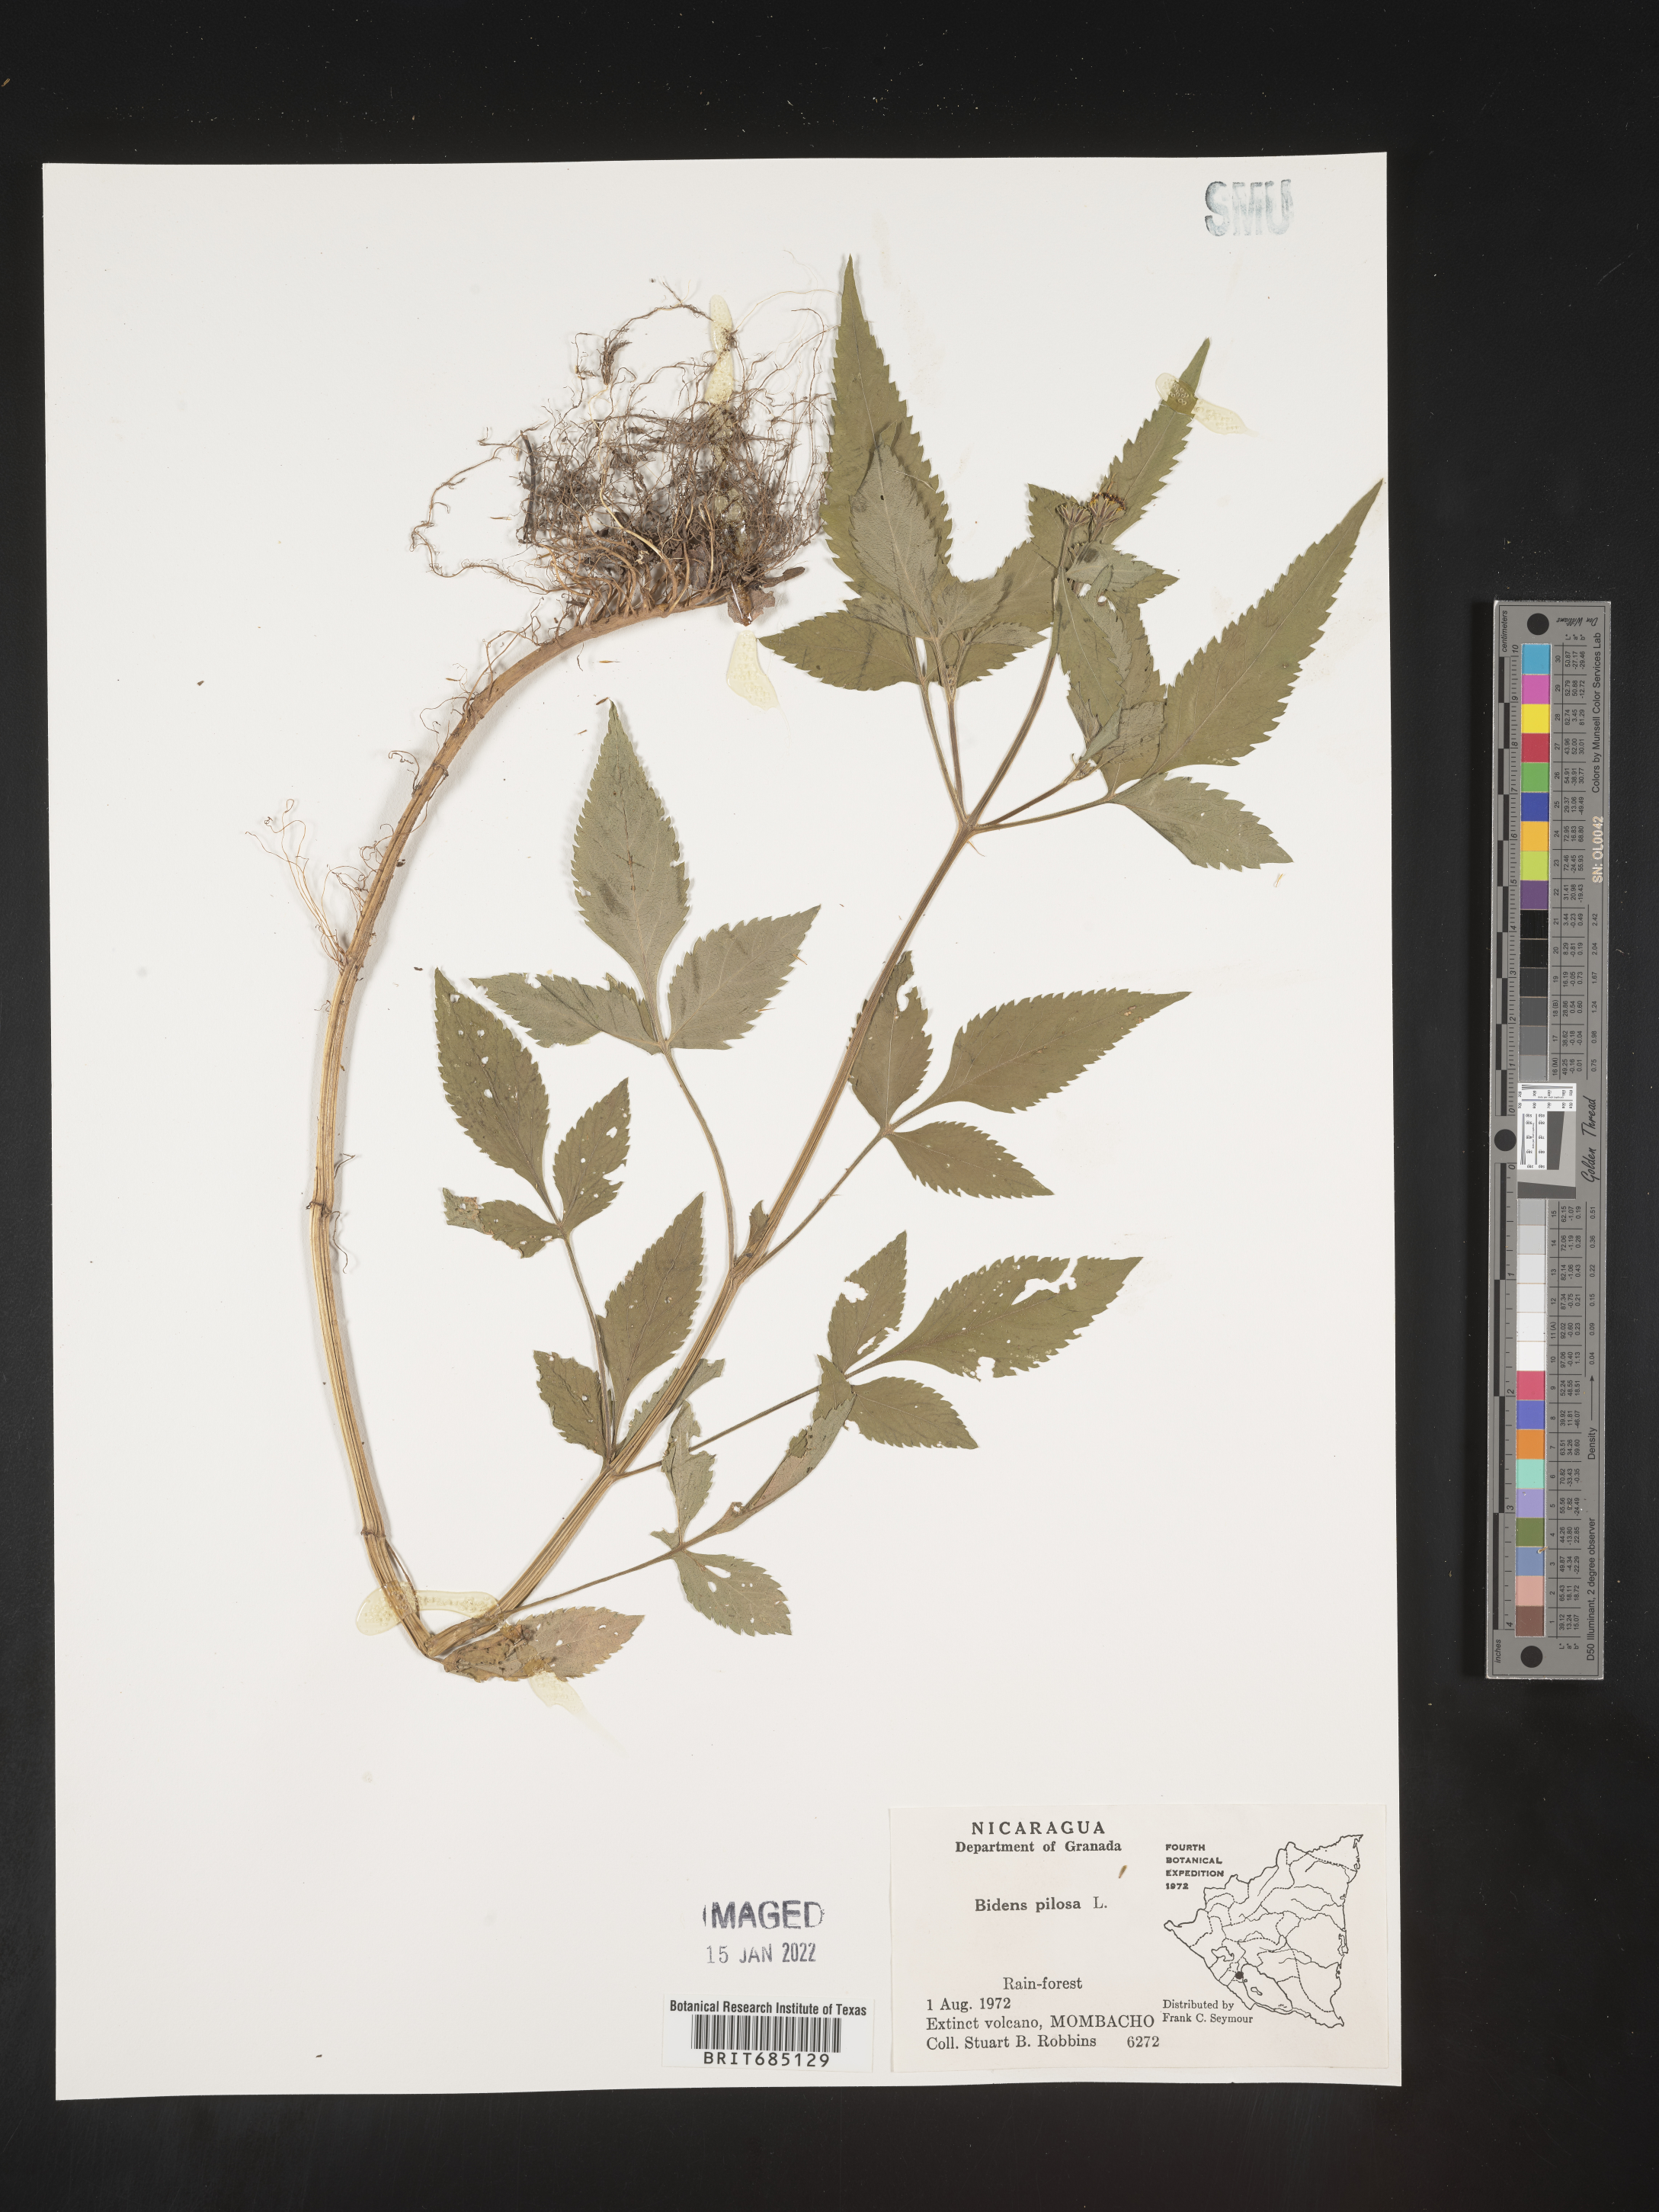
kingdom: Plantae
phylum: Tracheophyta
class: Magnoliopsida
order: Asterales
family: Asteraceae
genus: Bidens
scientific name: Bidens
